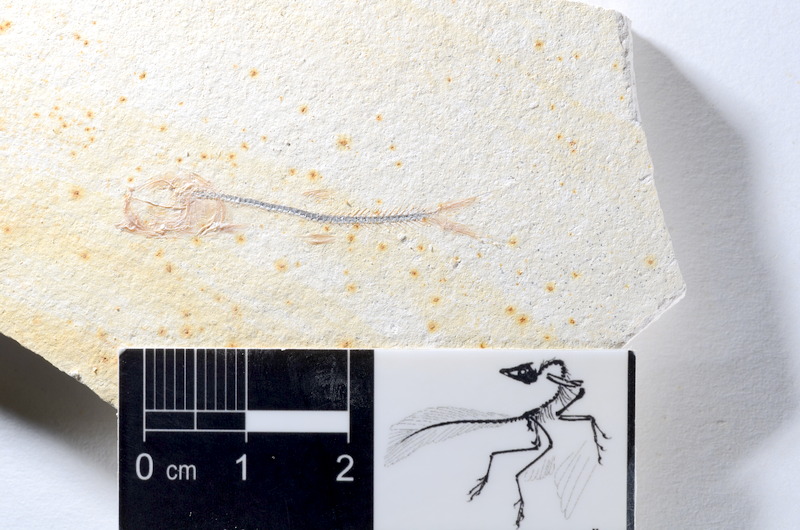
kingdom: Animalia
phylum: Chordata
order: Salmoniformes
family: Orthogonikleithridae
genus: Orthogonikleithrus
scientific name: Orthogonikleithrus hoelli
